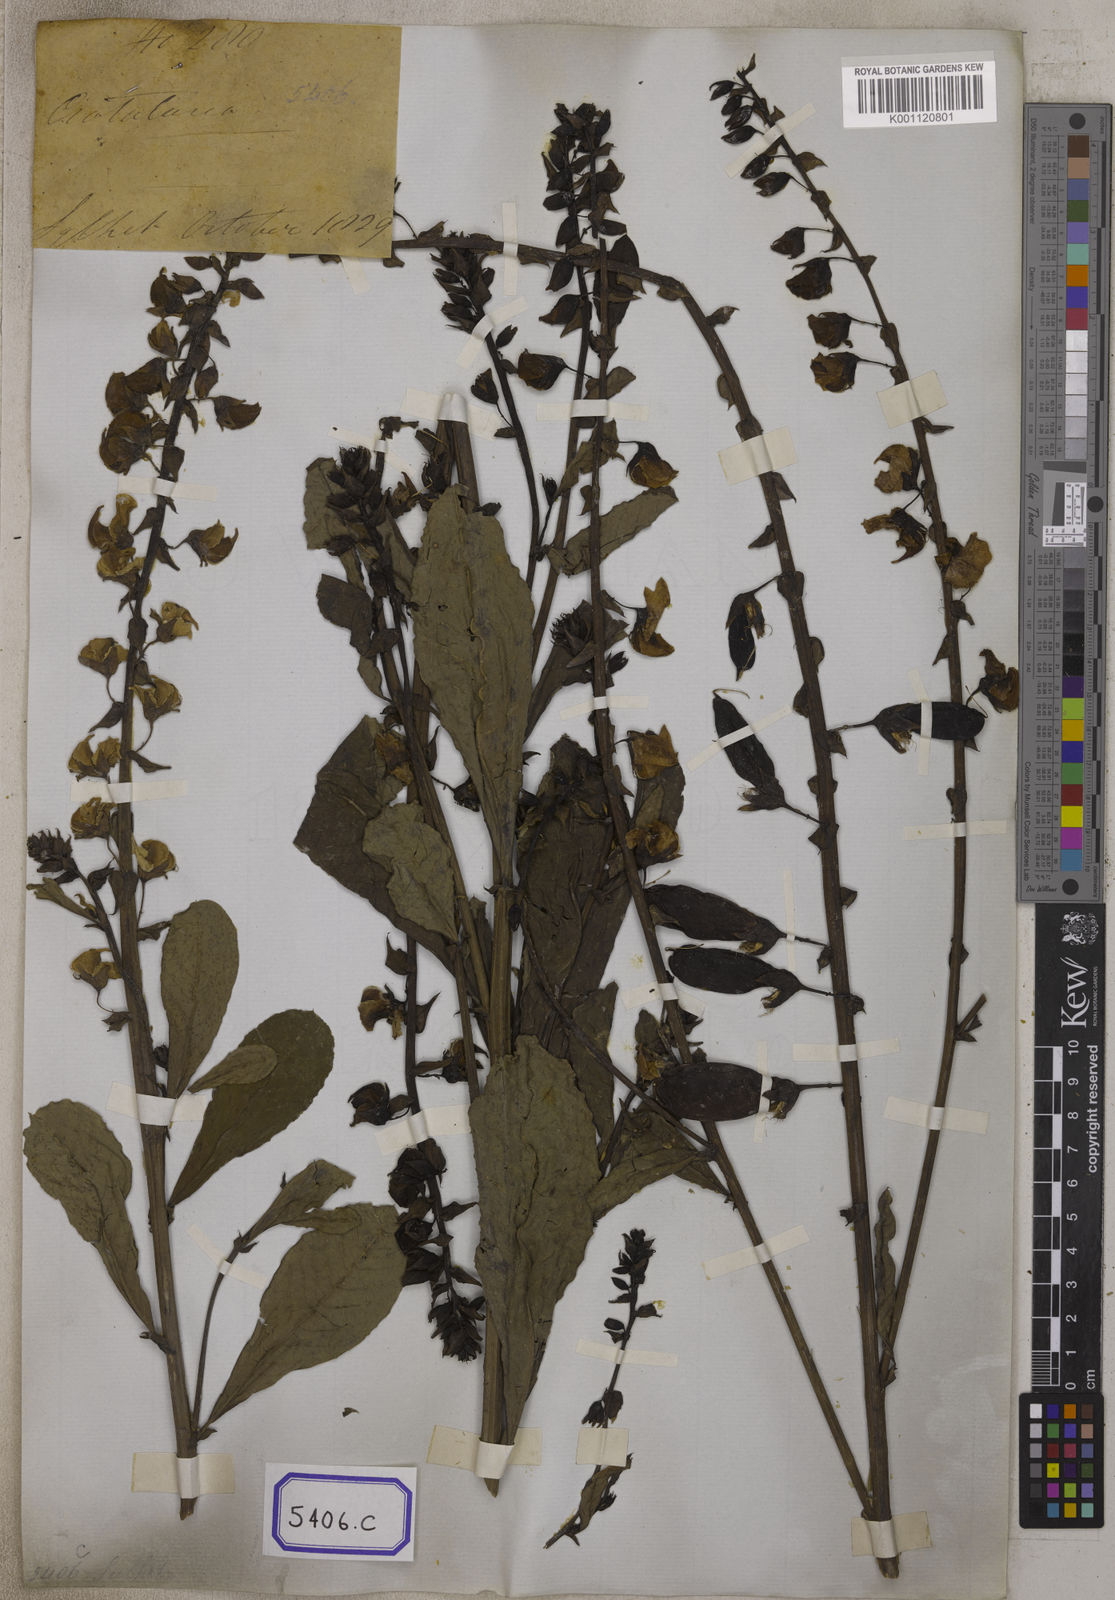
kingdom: Plantae
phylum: Tracheophyta
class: Magnoliopsida
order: Fabales
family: Fabaceae
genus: Crotalaria
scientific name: Crotalaria spectabilis
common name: Showy rattlebox
